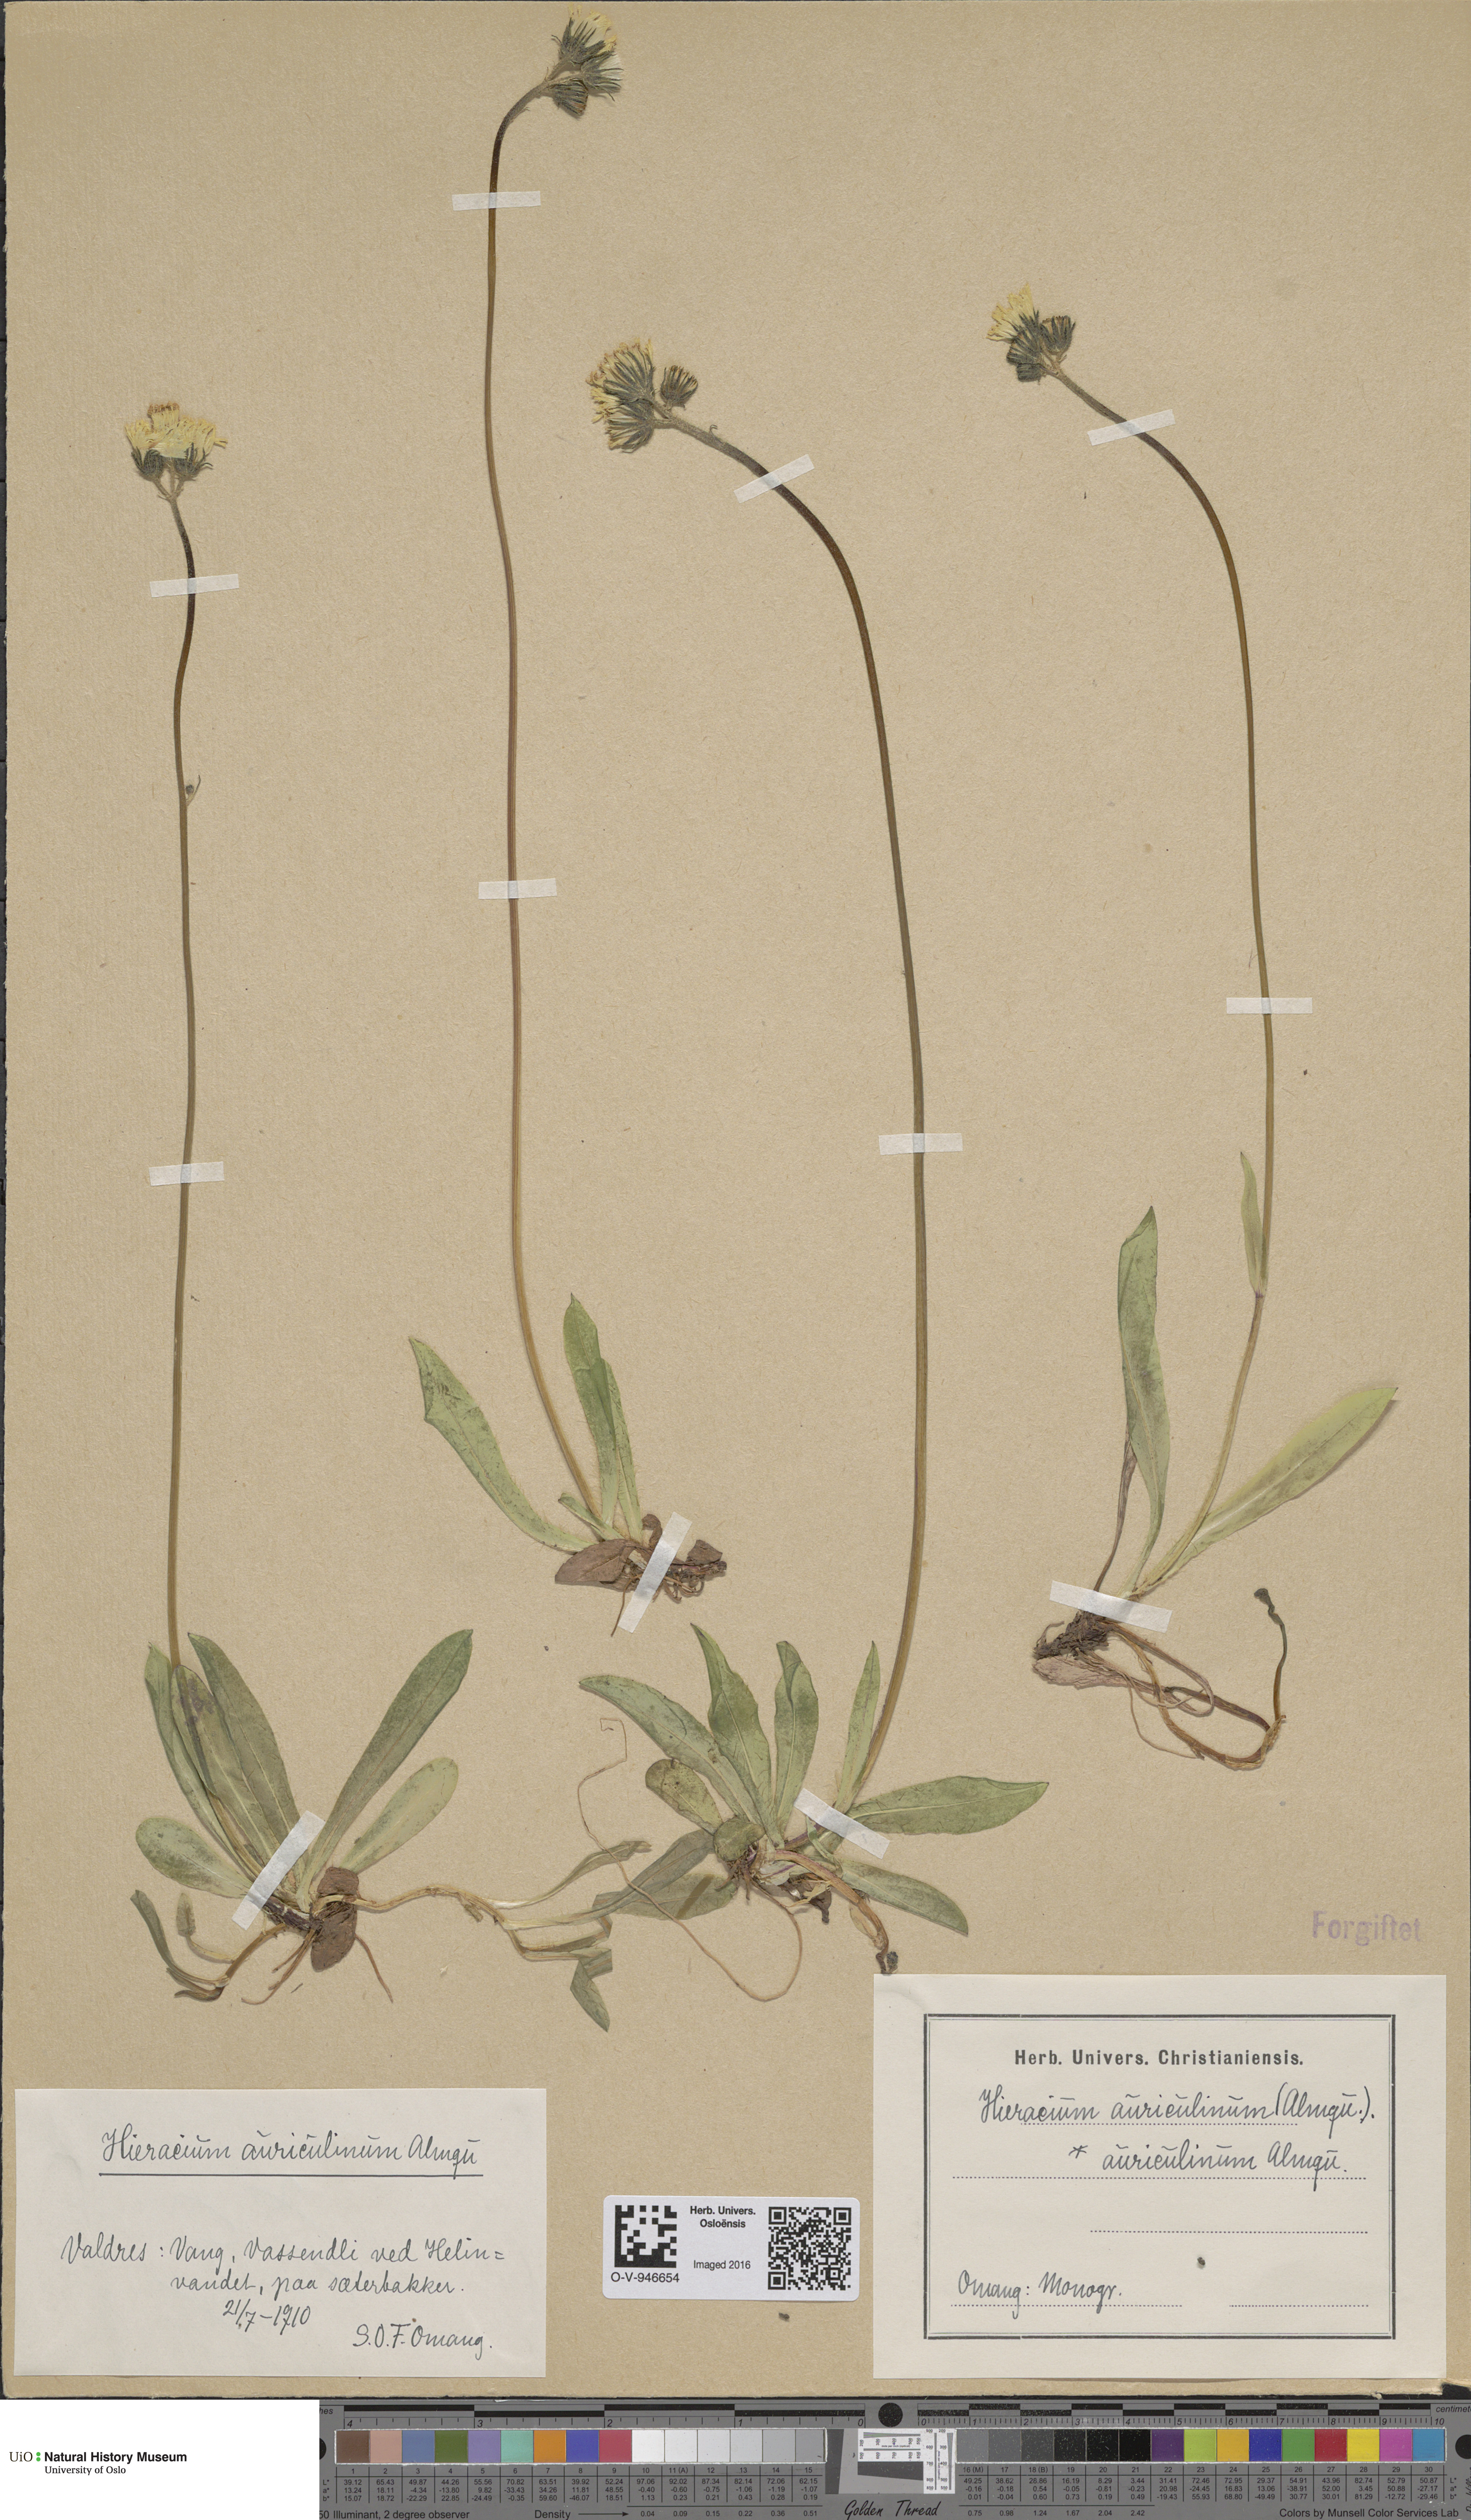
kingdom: Plantae
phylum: Tracheophyta
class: Magnoliopsida
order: Asterales
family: Asteraceae
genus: Pilosella
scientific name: Pilosella dubia
